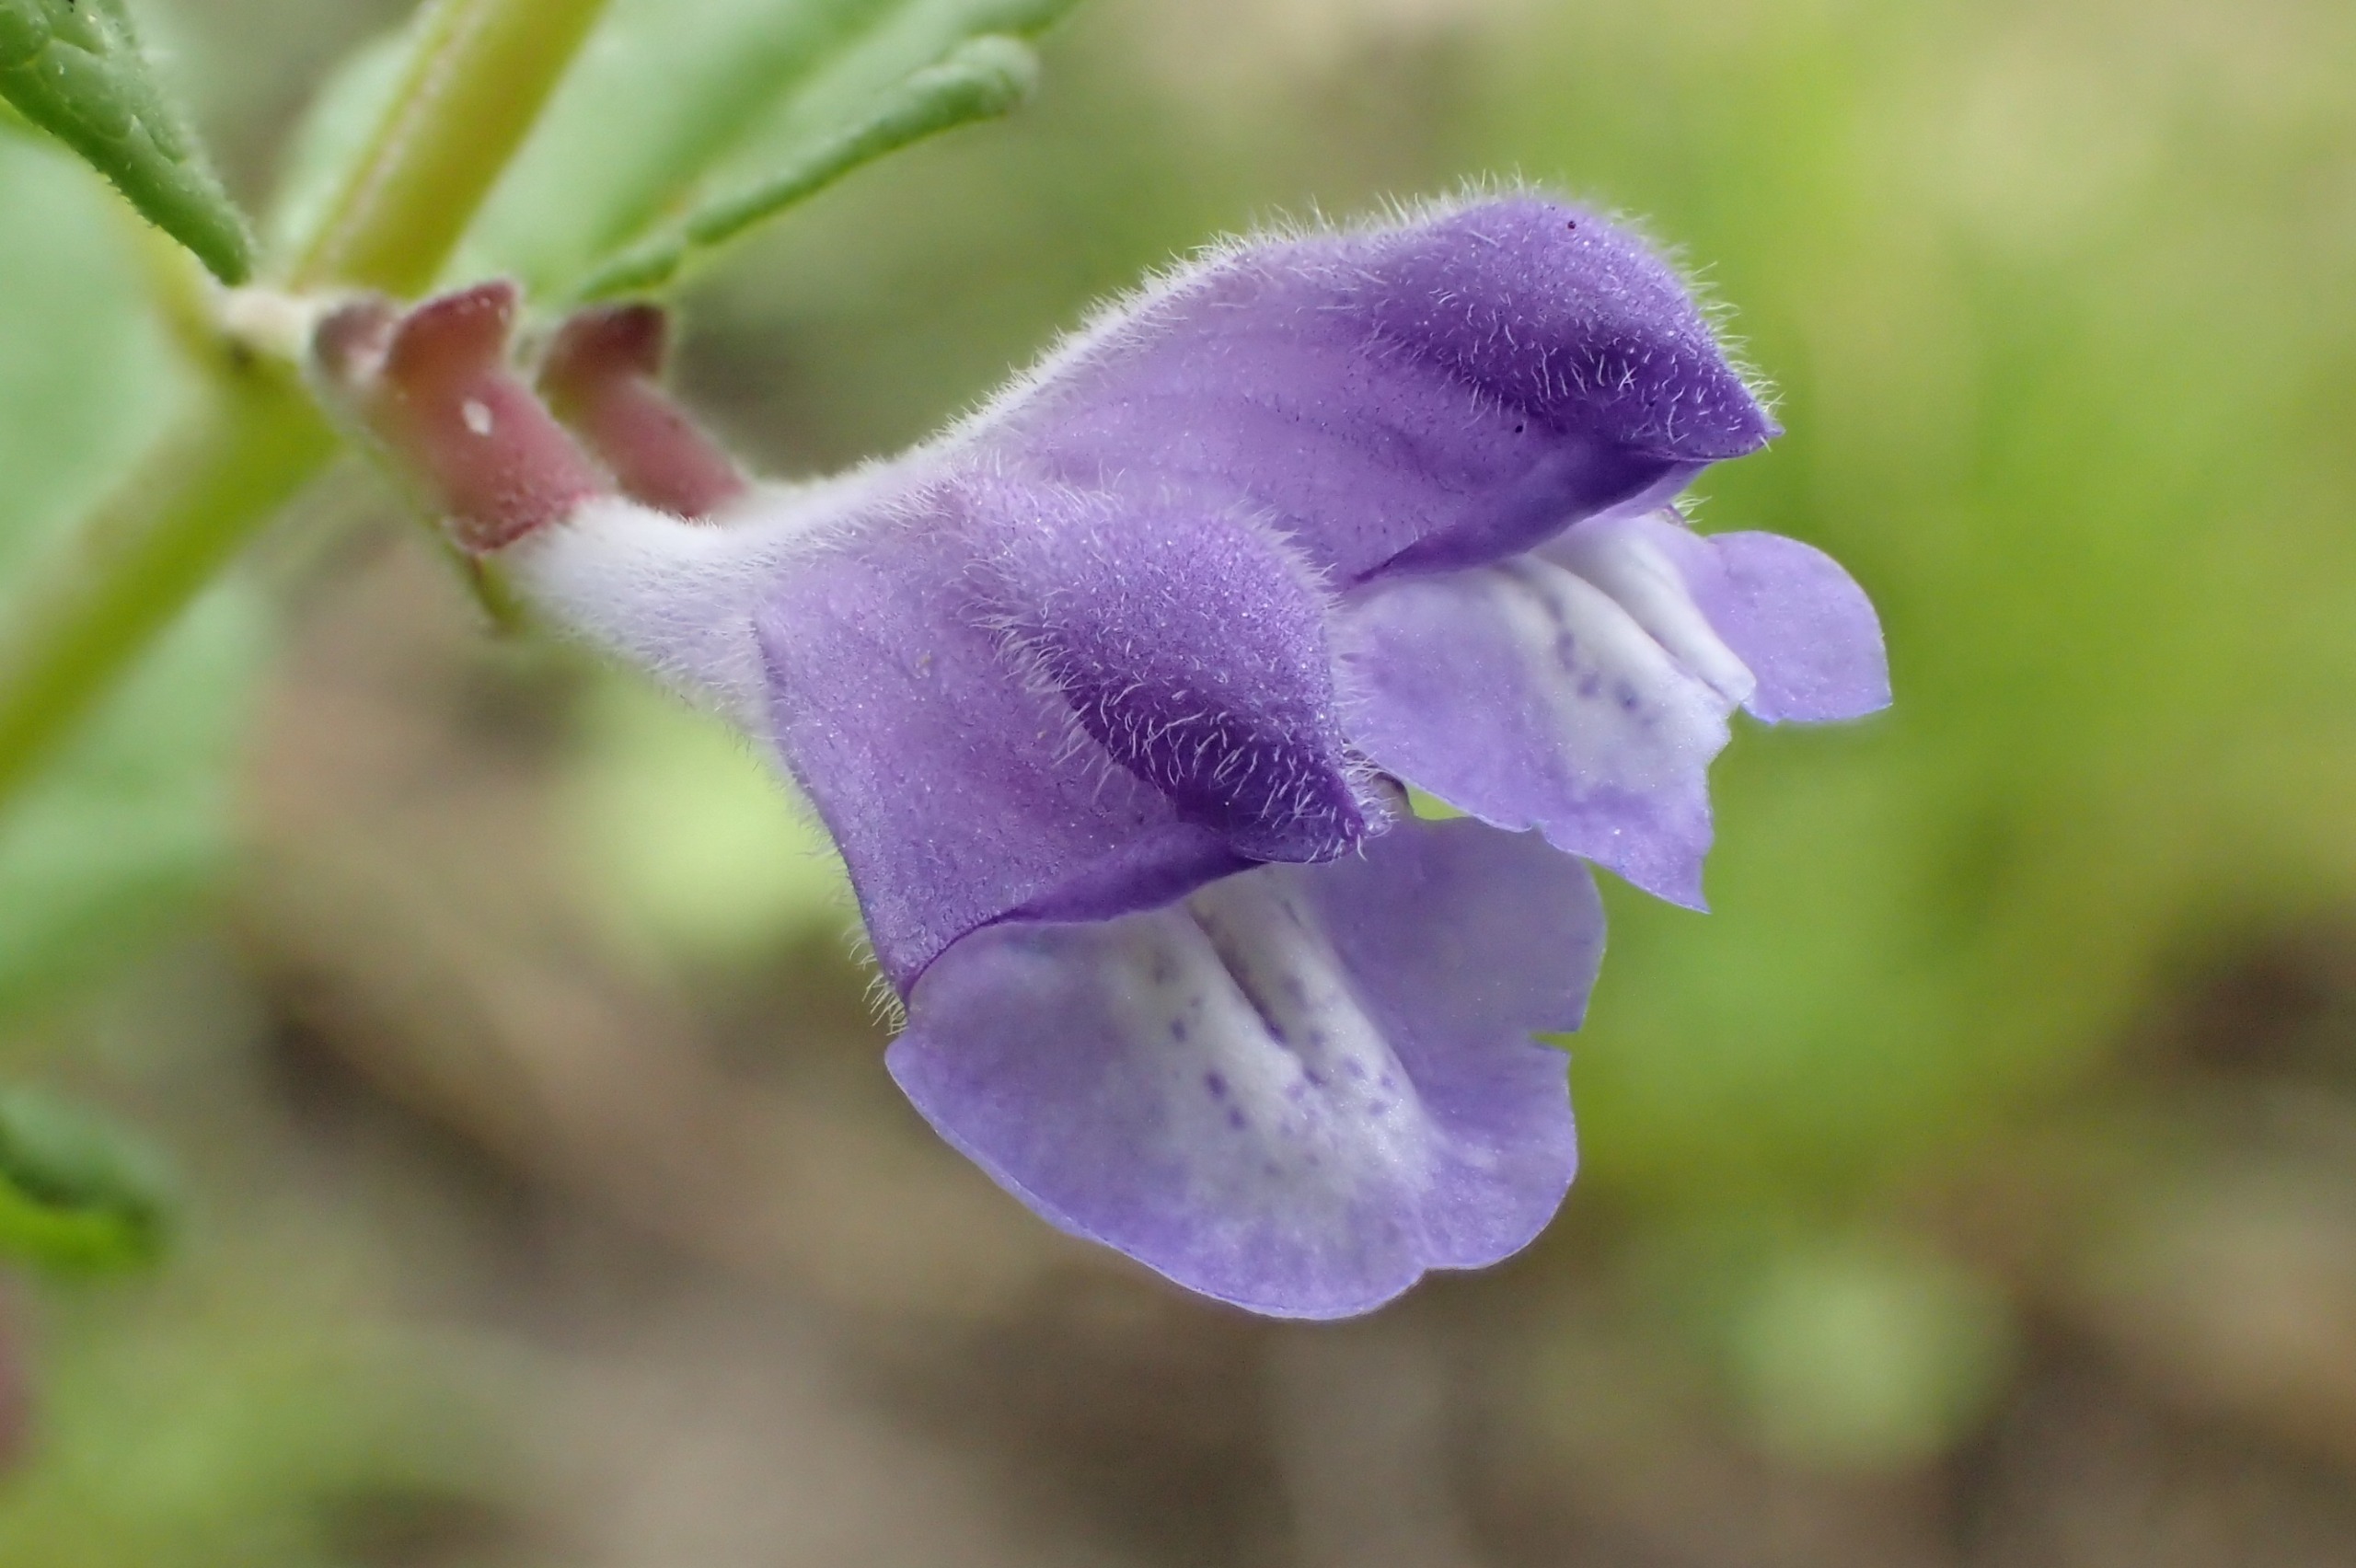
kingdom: Plantae
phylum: Tracheophyta
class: Magnoliopsida
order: Lamiales
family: Lamiaceae
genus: Scutellaria
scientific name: Scutellaria galericulata
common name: Almindelig skjolddrager
